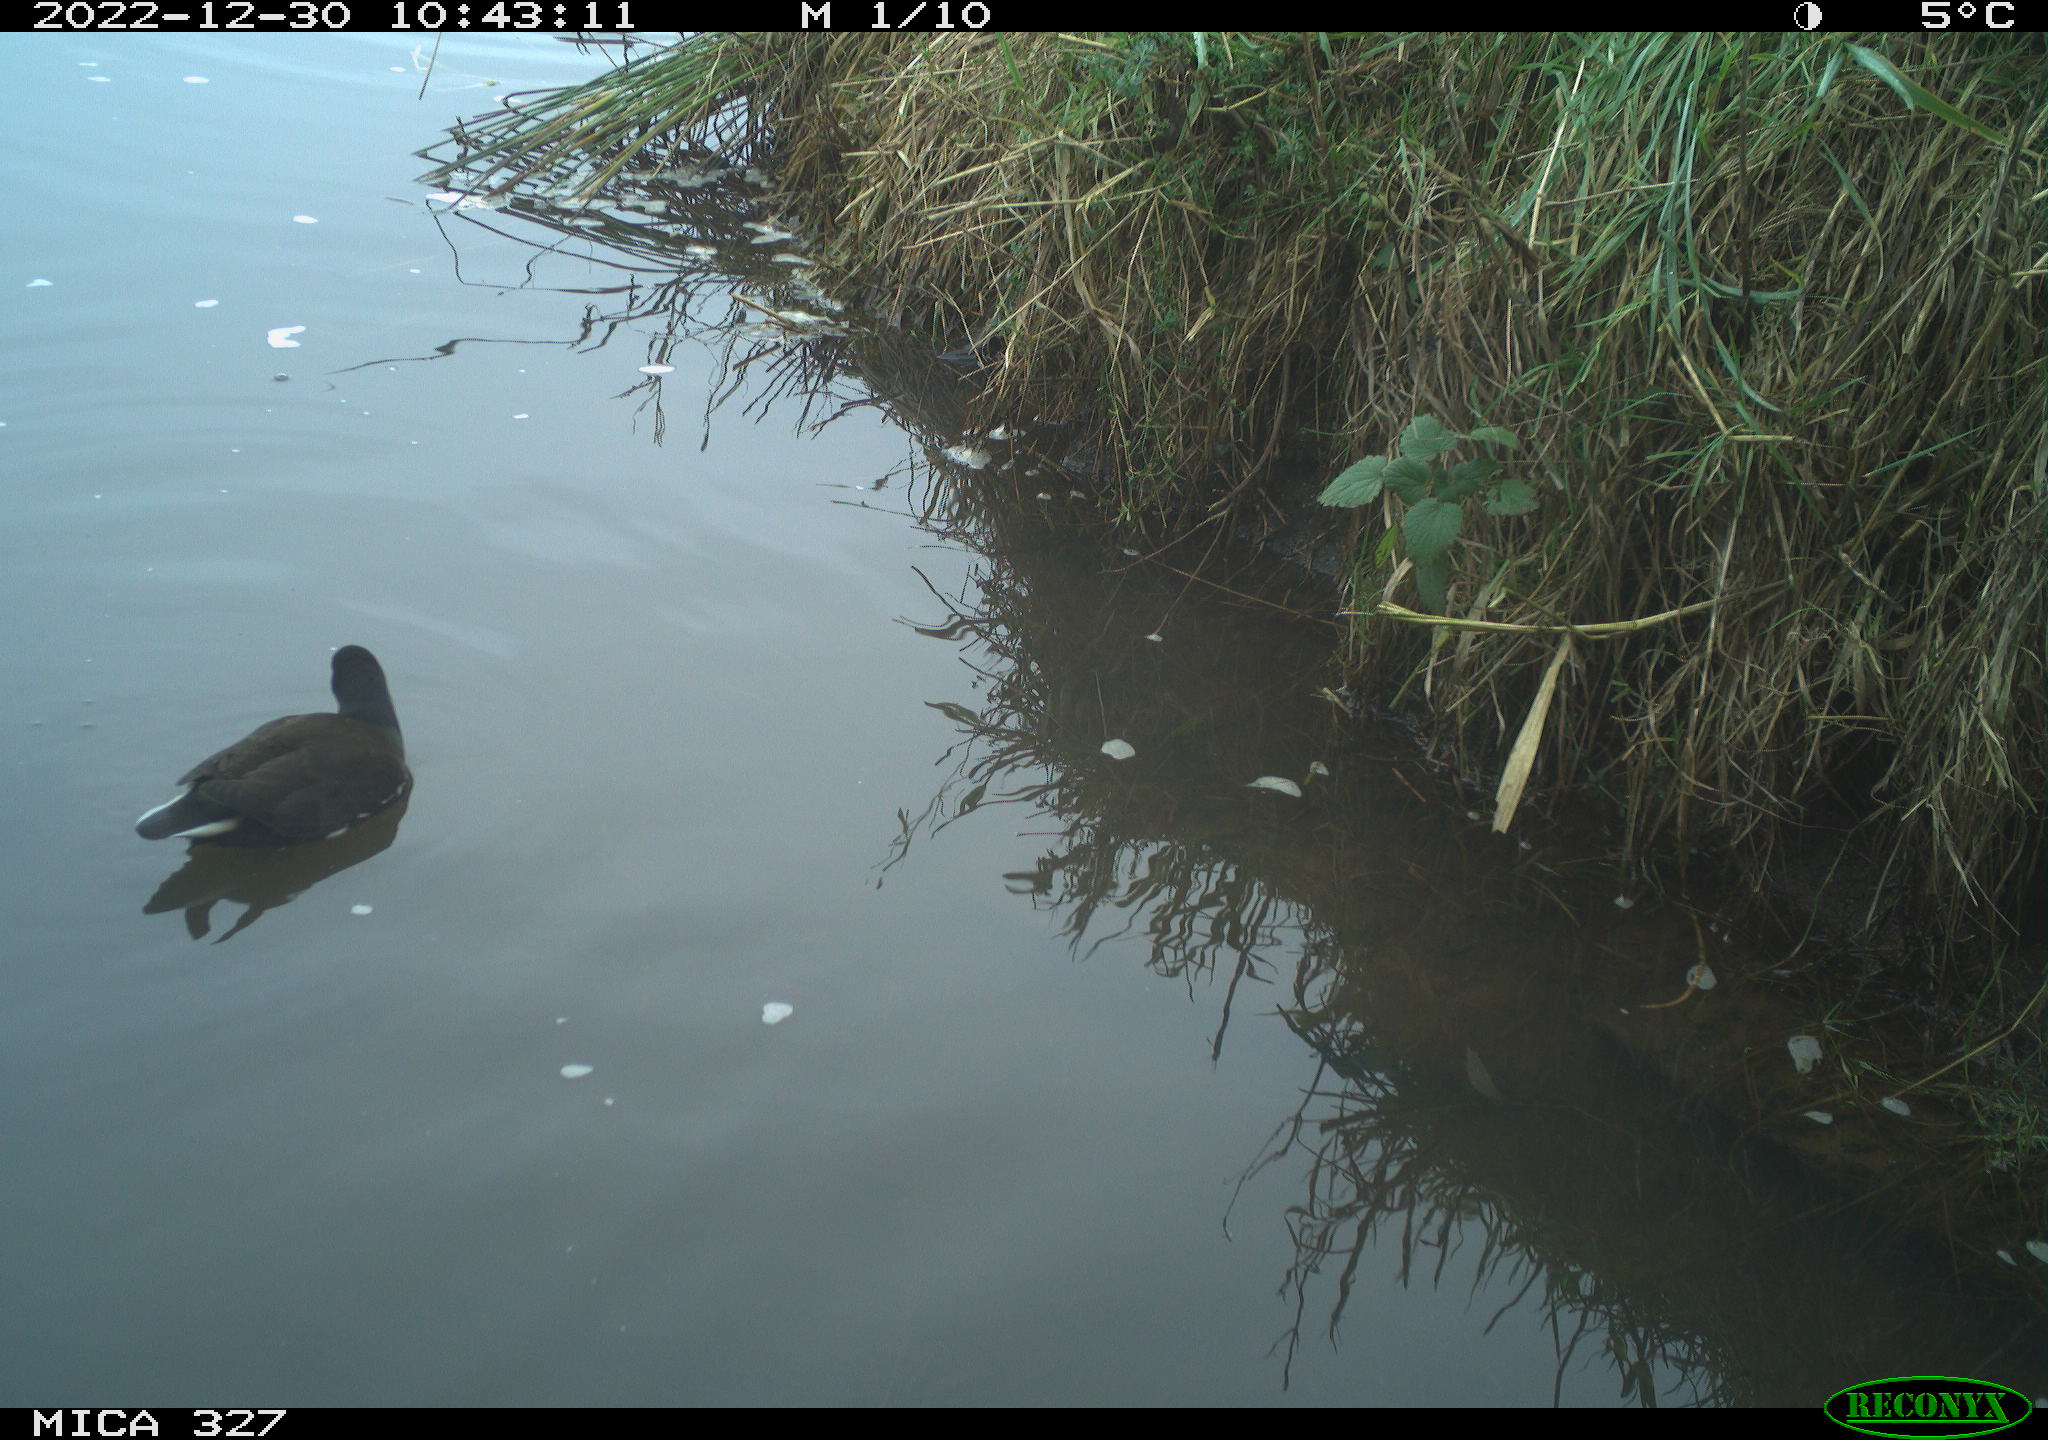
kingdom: Animalia
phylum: Chordata
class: Aves
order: Anseriformes
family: Anatidae
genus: Anas
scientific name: Anas
